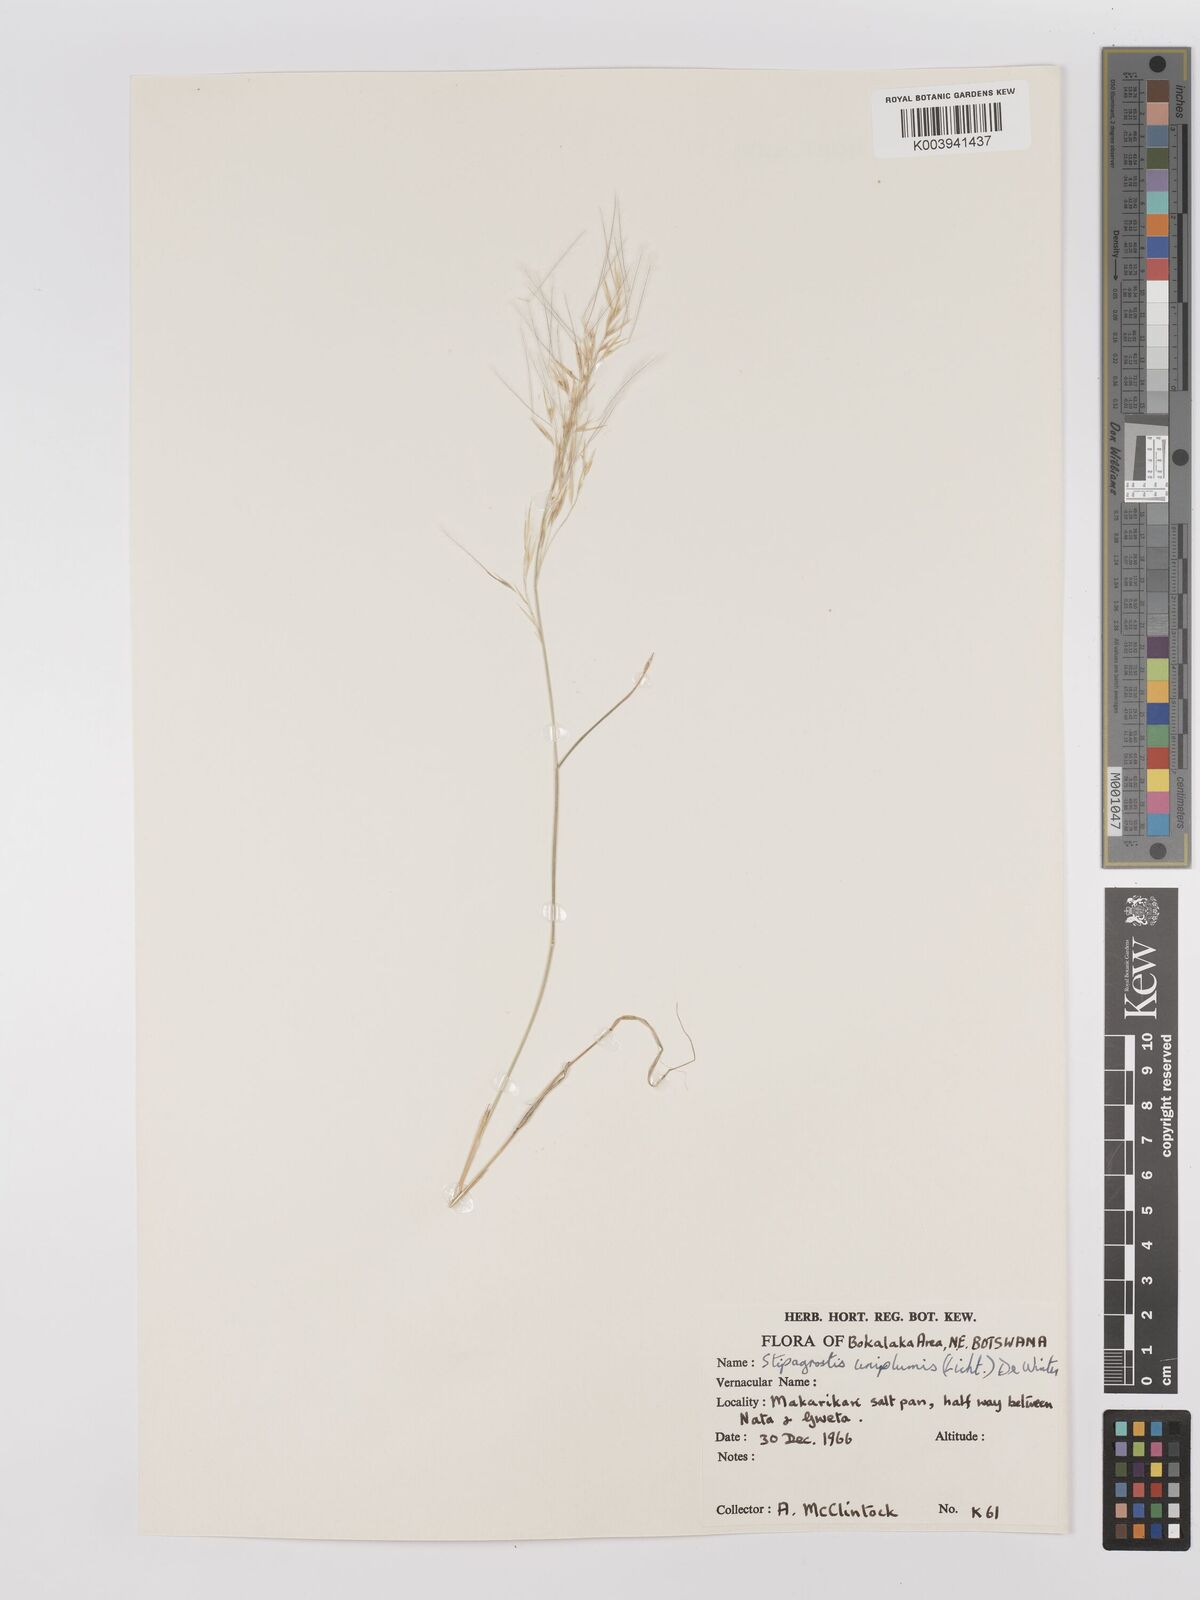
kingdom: Plantae
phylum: Tracheophyta
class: Liliopsida
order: Poales
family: Poaceae
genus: Stipagrostis
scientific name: Stipagrostis uniplumis
